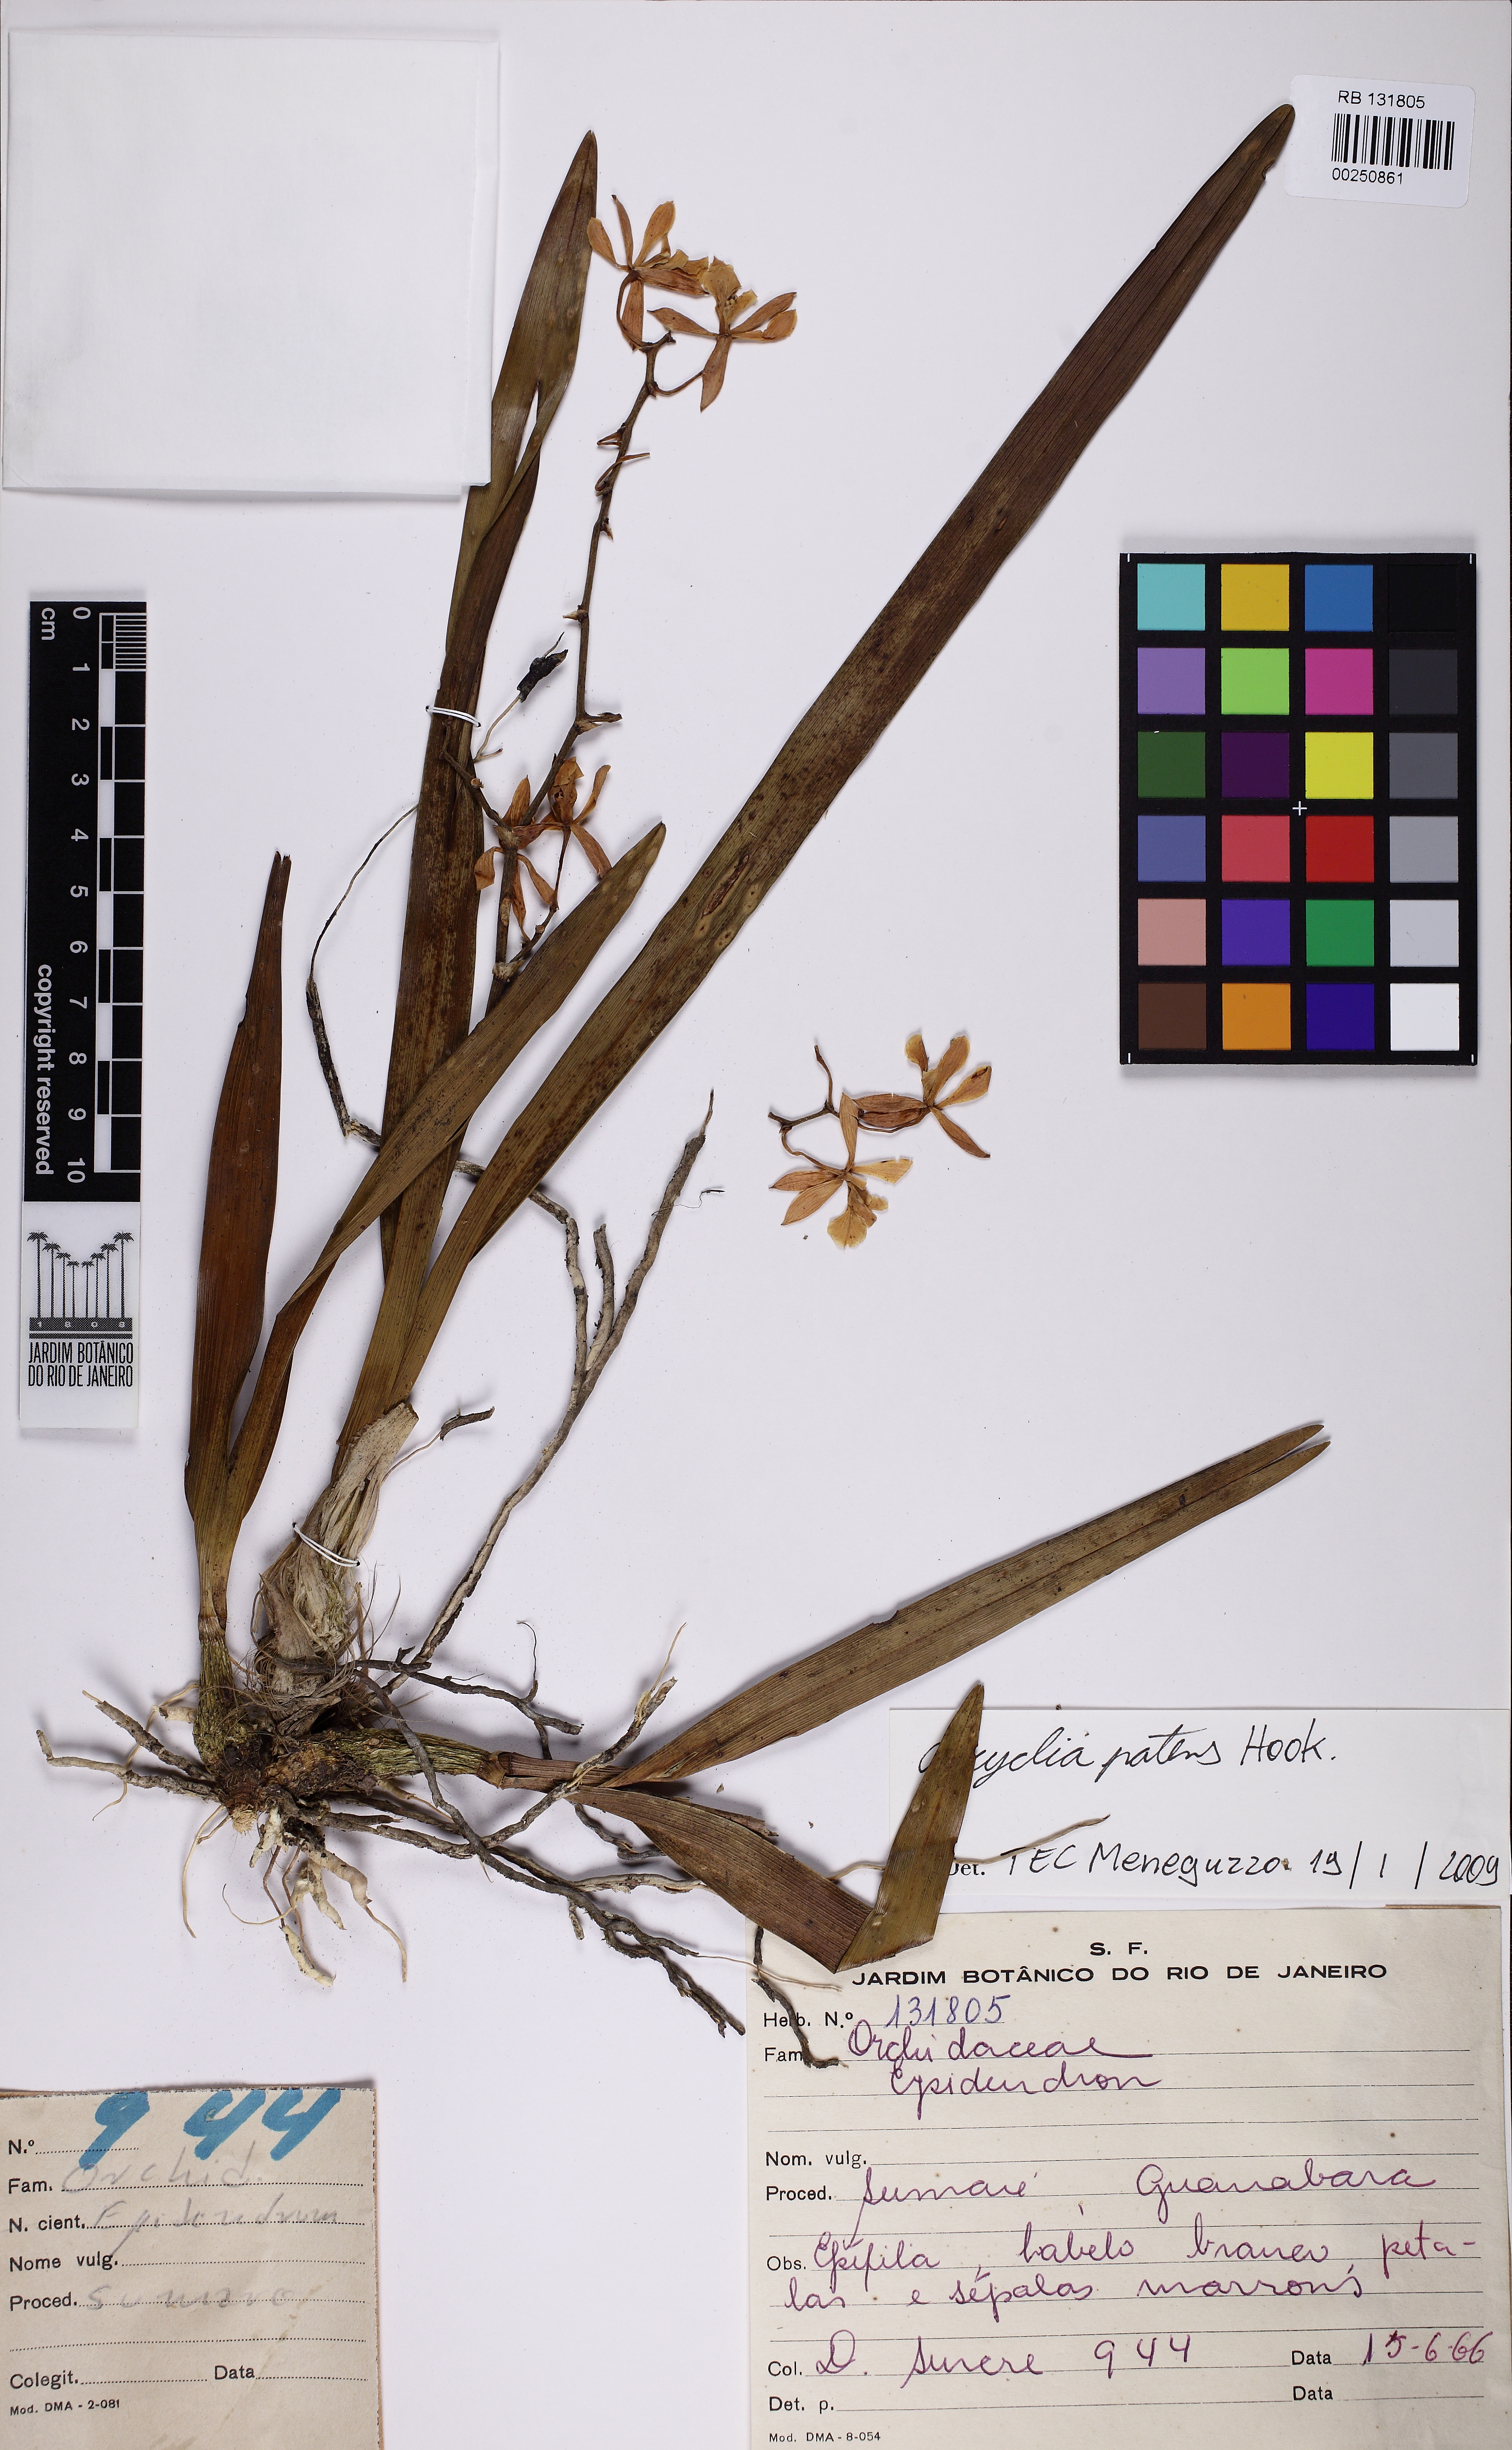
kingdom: Plantae
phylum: Tracheophyta
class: Liliopsida
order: Asparagales
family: Orchidaceae
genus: Encyclia
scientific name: Encyclia patens
